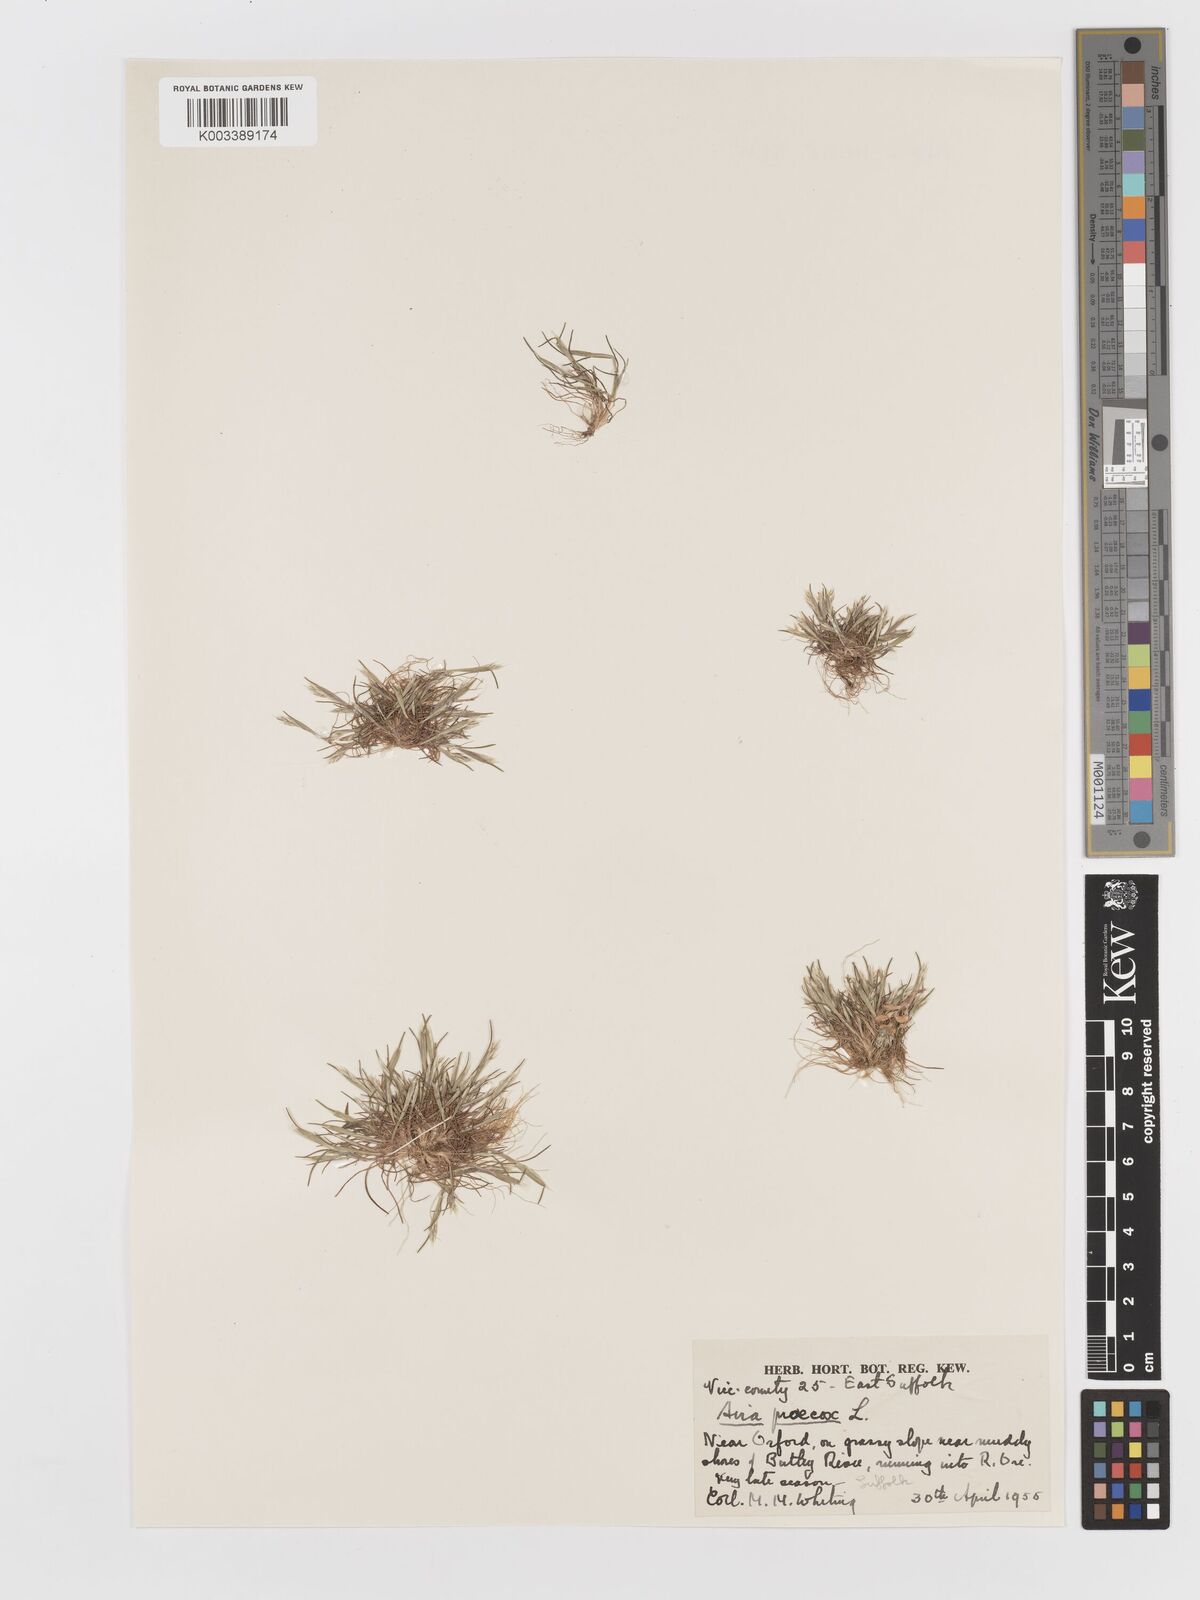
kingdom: Plantae
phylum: Tracheophyta
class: Liliopsida
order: Poales
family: Poaceae
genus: Aira
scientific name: Aira praecox
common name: Early hair-grass
